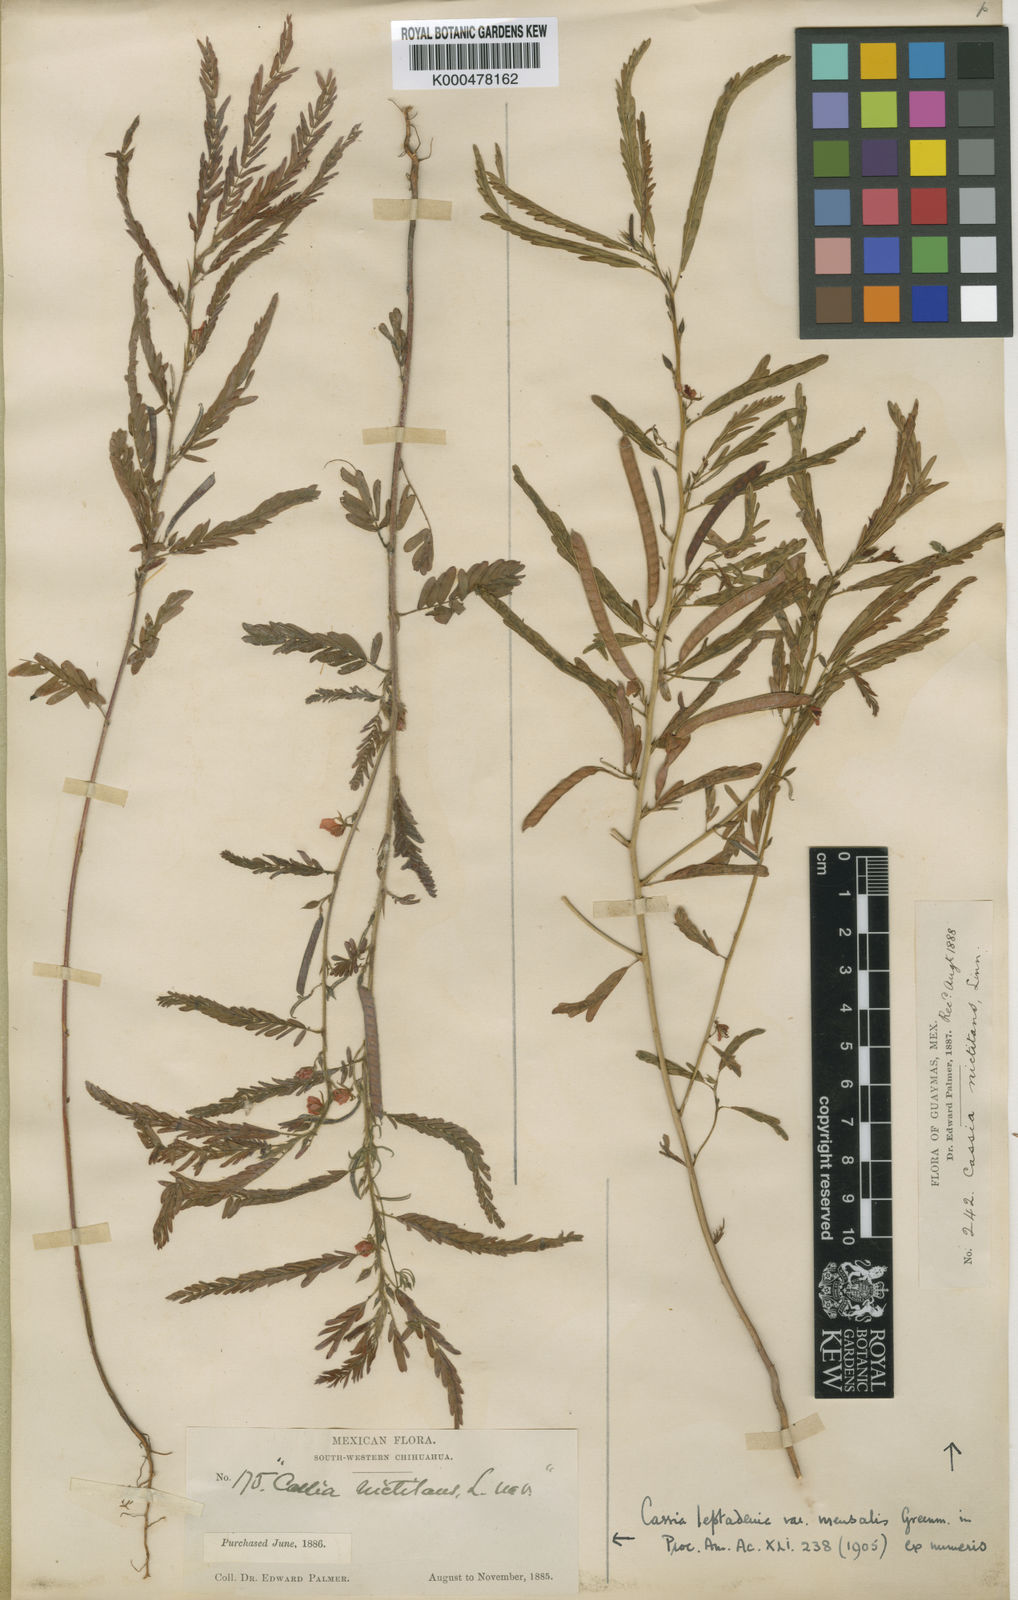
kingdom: Plantae
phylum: Tracheophyta
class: Magnoliopsida
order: Fabales
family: Fabaceae
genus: Chamaecrista
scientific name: Chamaecrista nictitans
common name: Sensitive cassia
